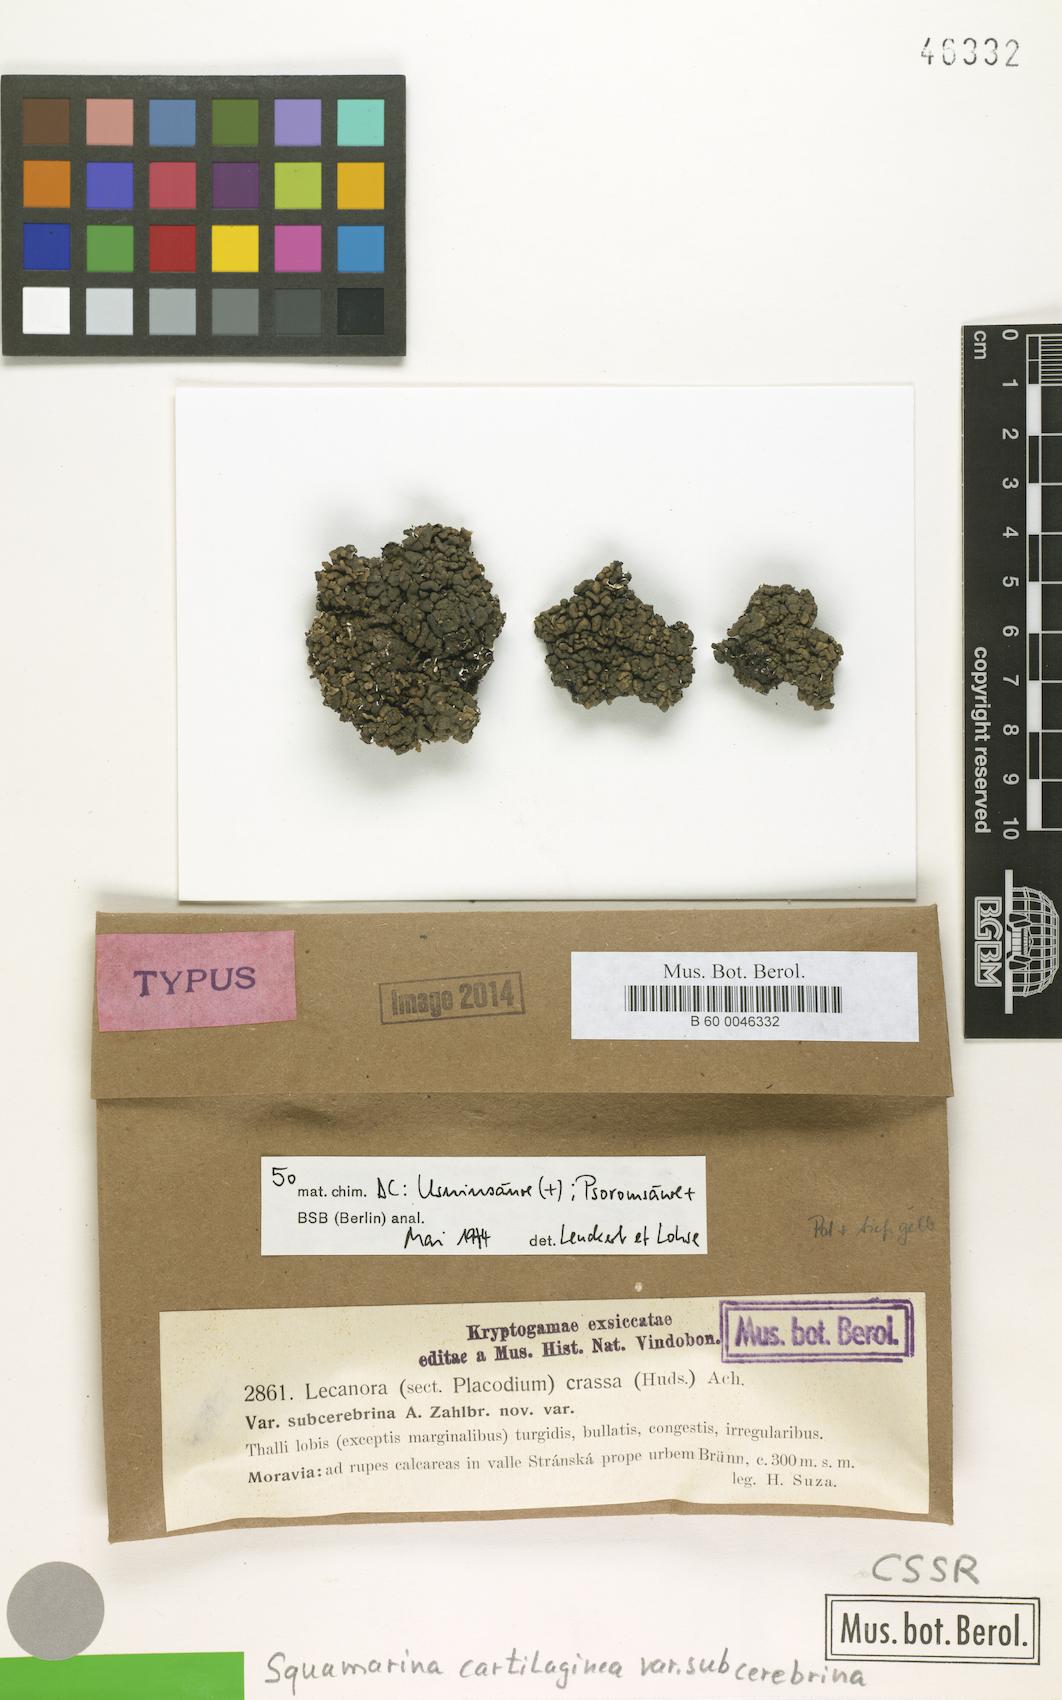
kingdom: Fungi
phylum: Ascomycota
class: Lecanoromycetes
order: Lecanorales
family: Stereocaulaceae
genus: Squamarina
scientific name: Squamarina cartilaginea
